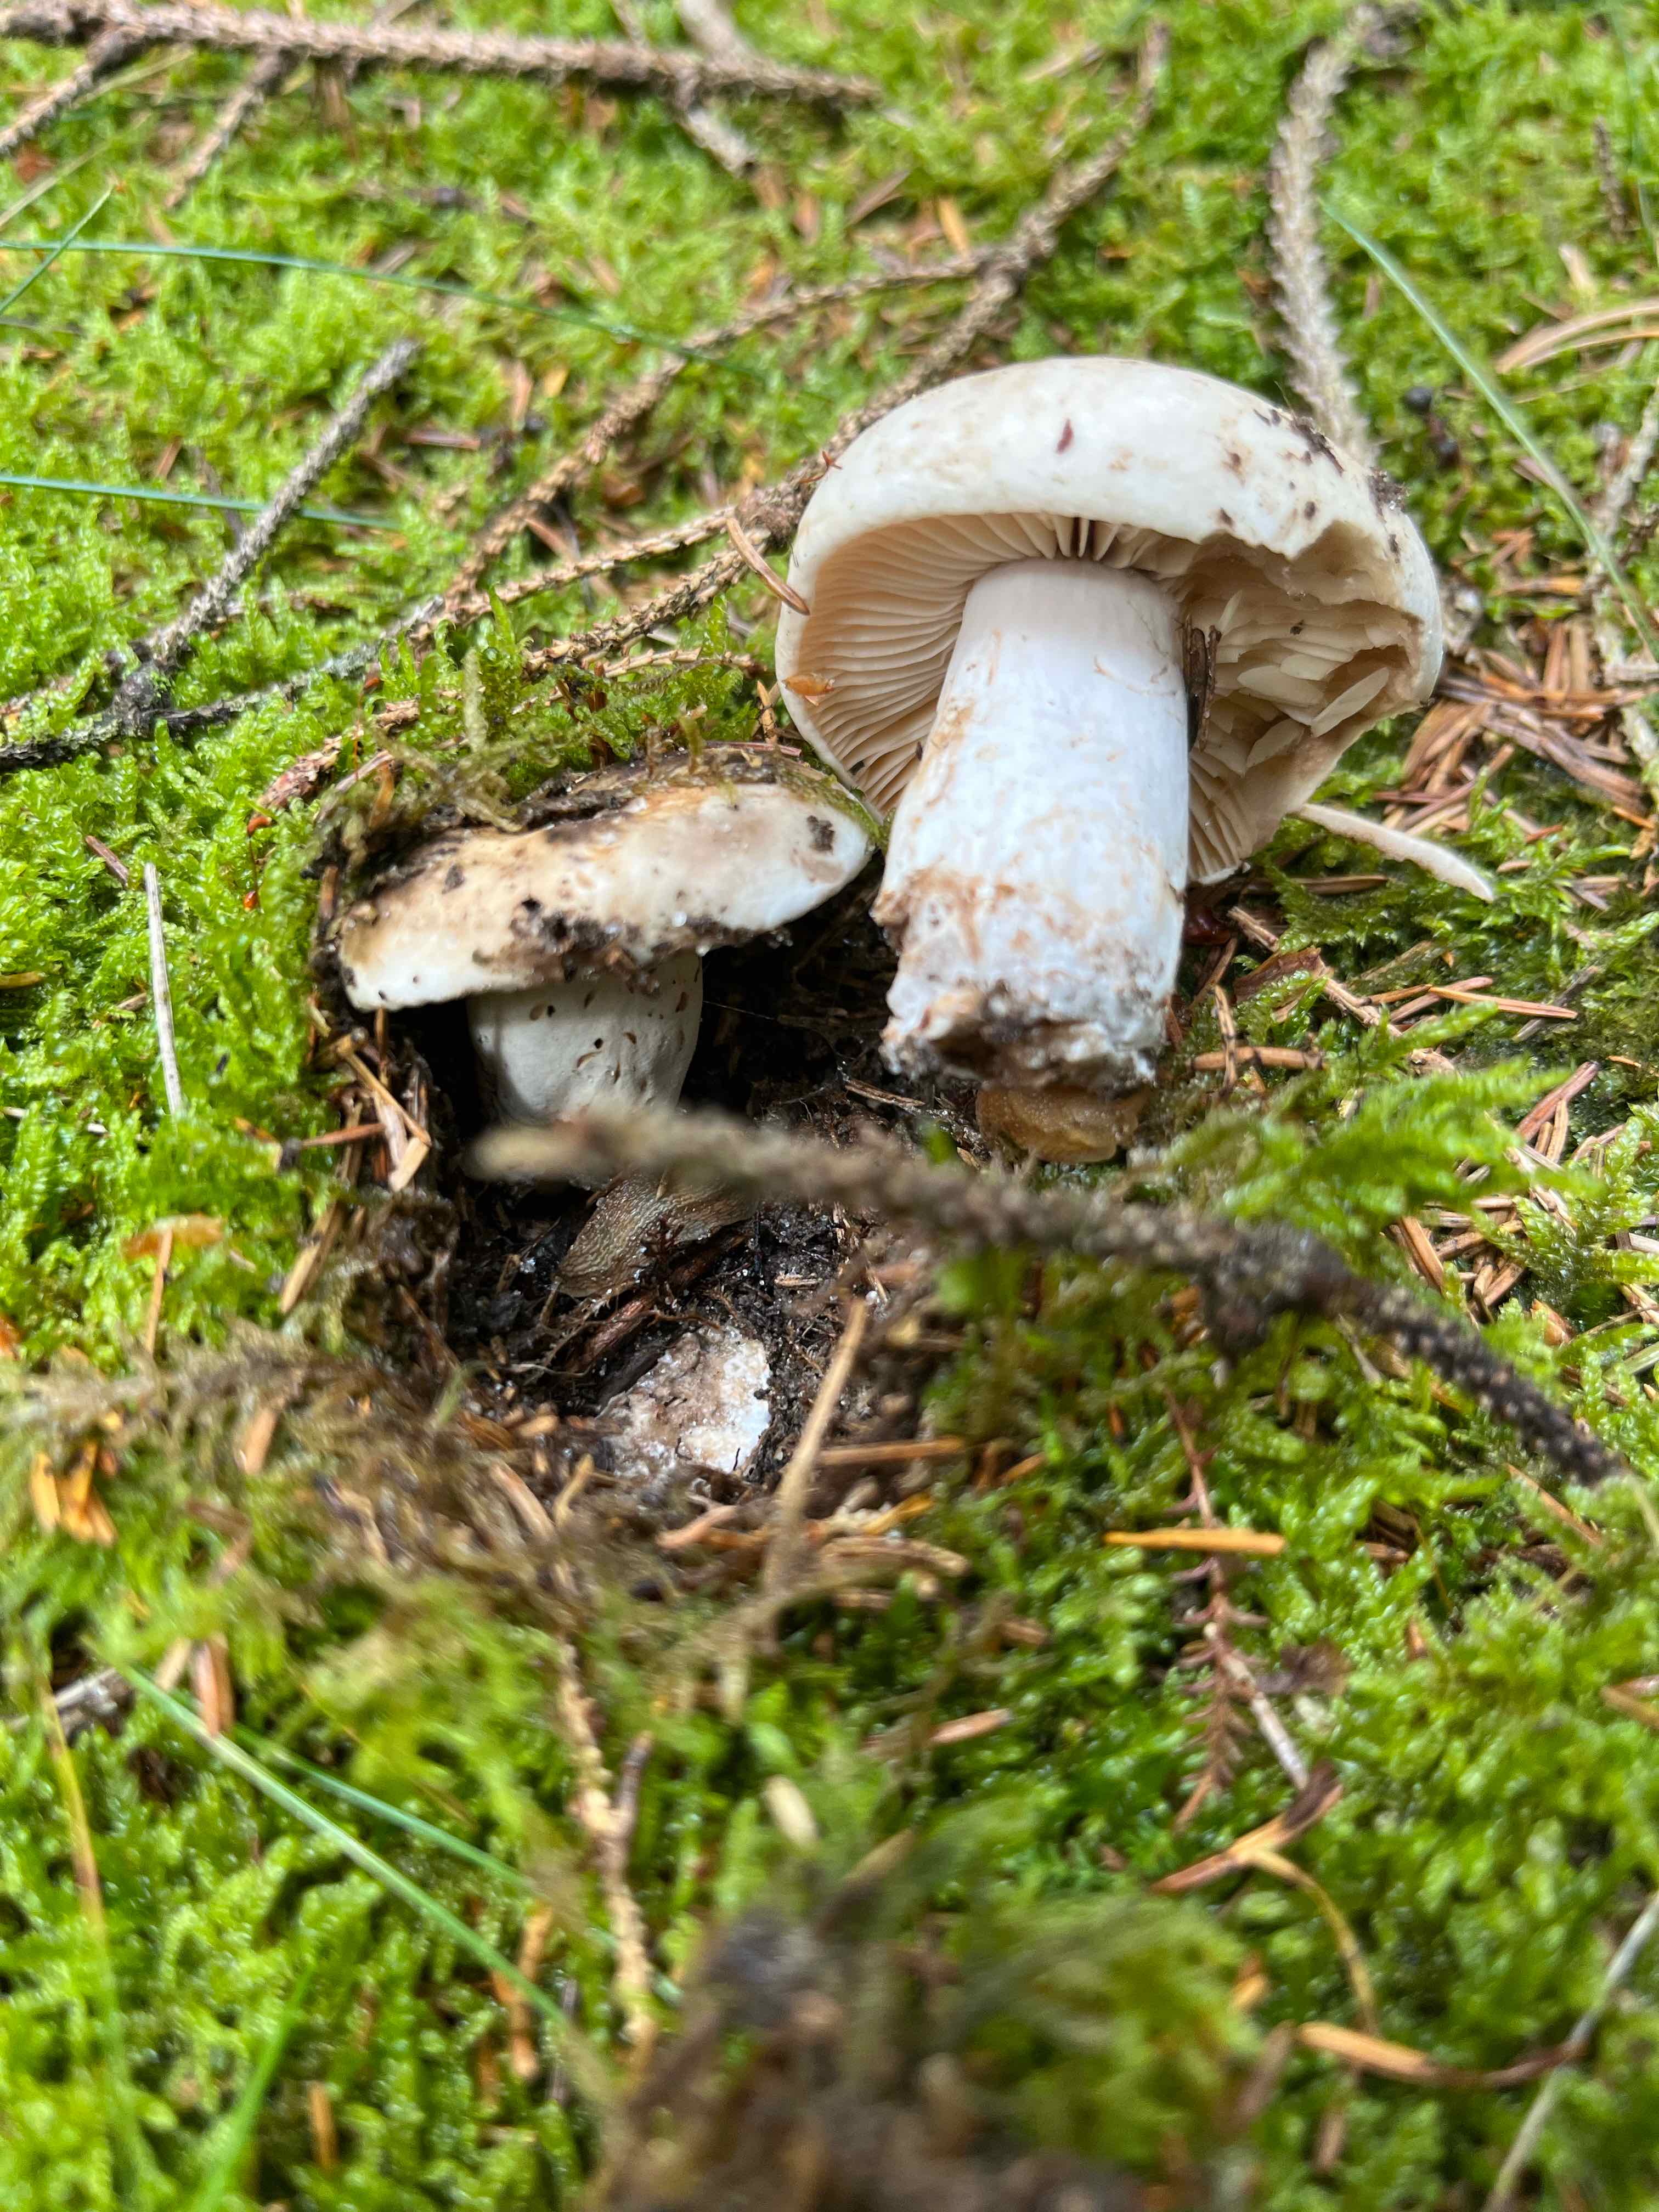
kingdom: Fungi
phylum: Basidiomycota
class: Agaricomycetes
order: Russulales
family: Russulaceae
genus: Russula
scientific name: Russula adusta
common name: sværtende skørhat
